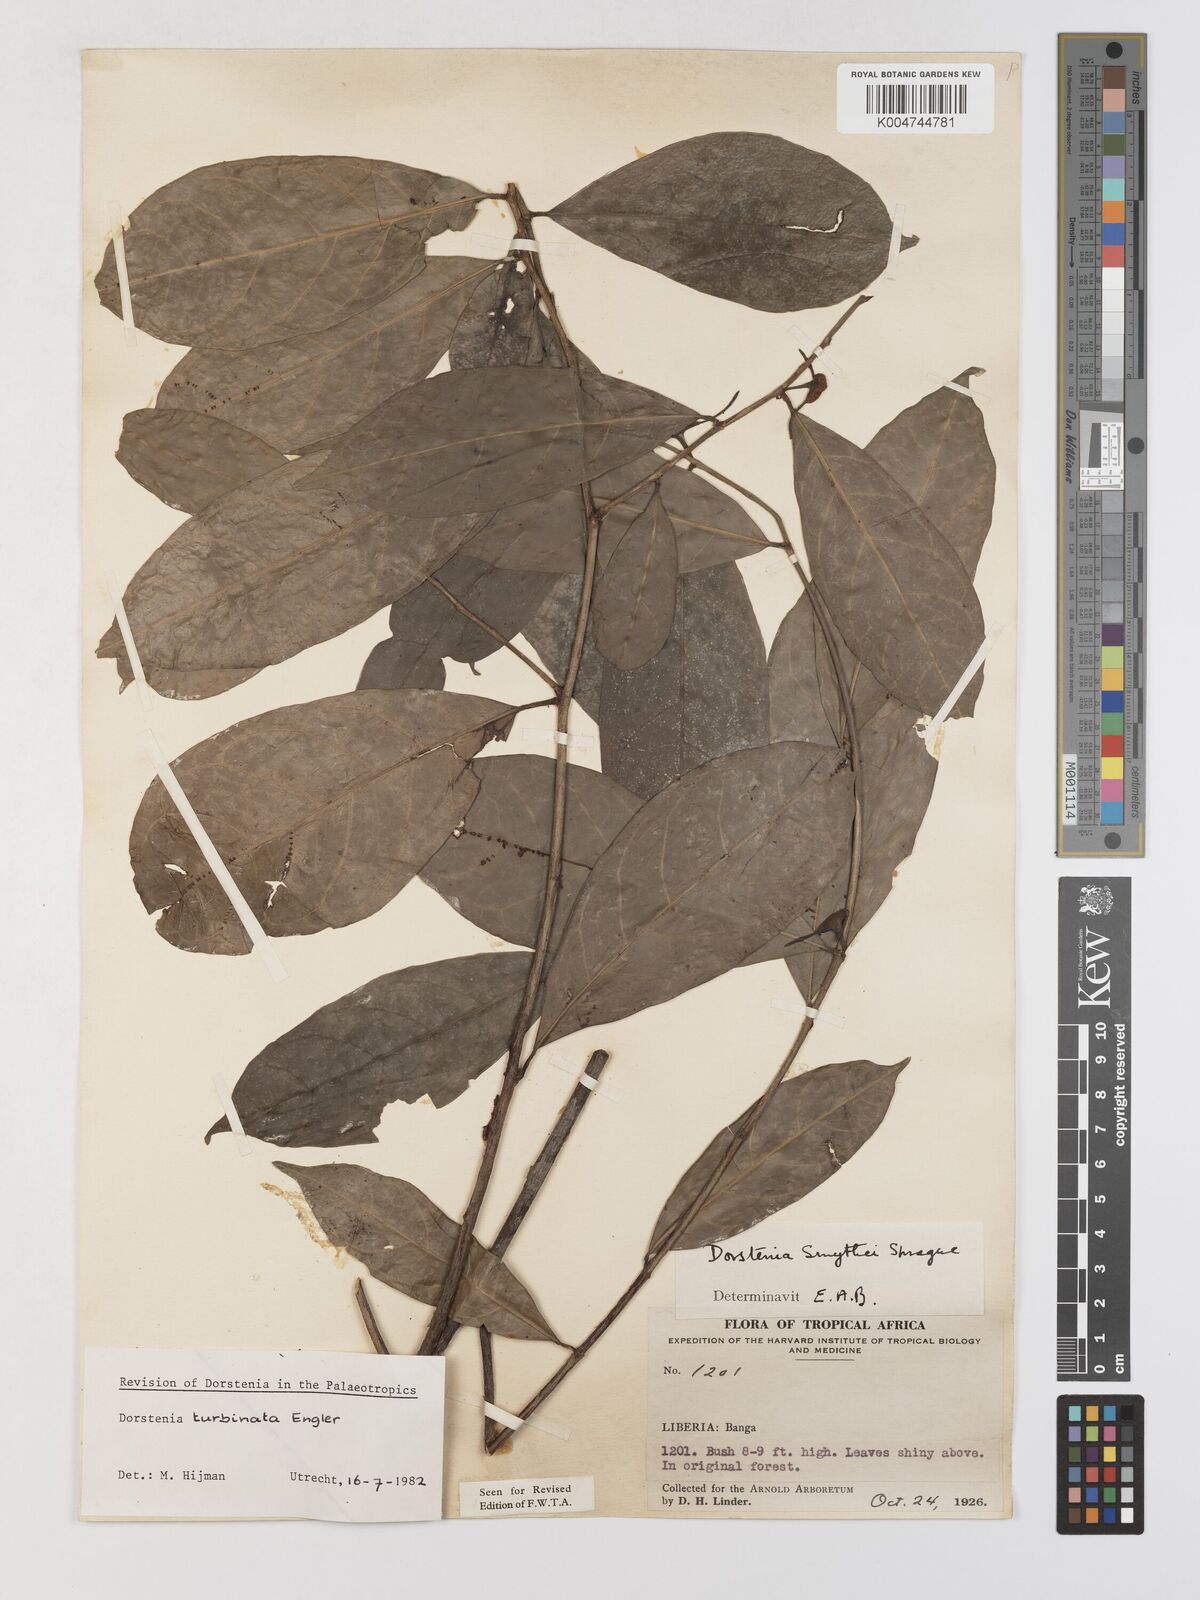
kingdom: Plantae
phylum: Tracheophyta
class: Magnoliopsida
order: Rosales
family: Moraceae
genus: Hijmania
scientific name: Hijmania turbinata
